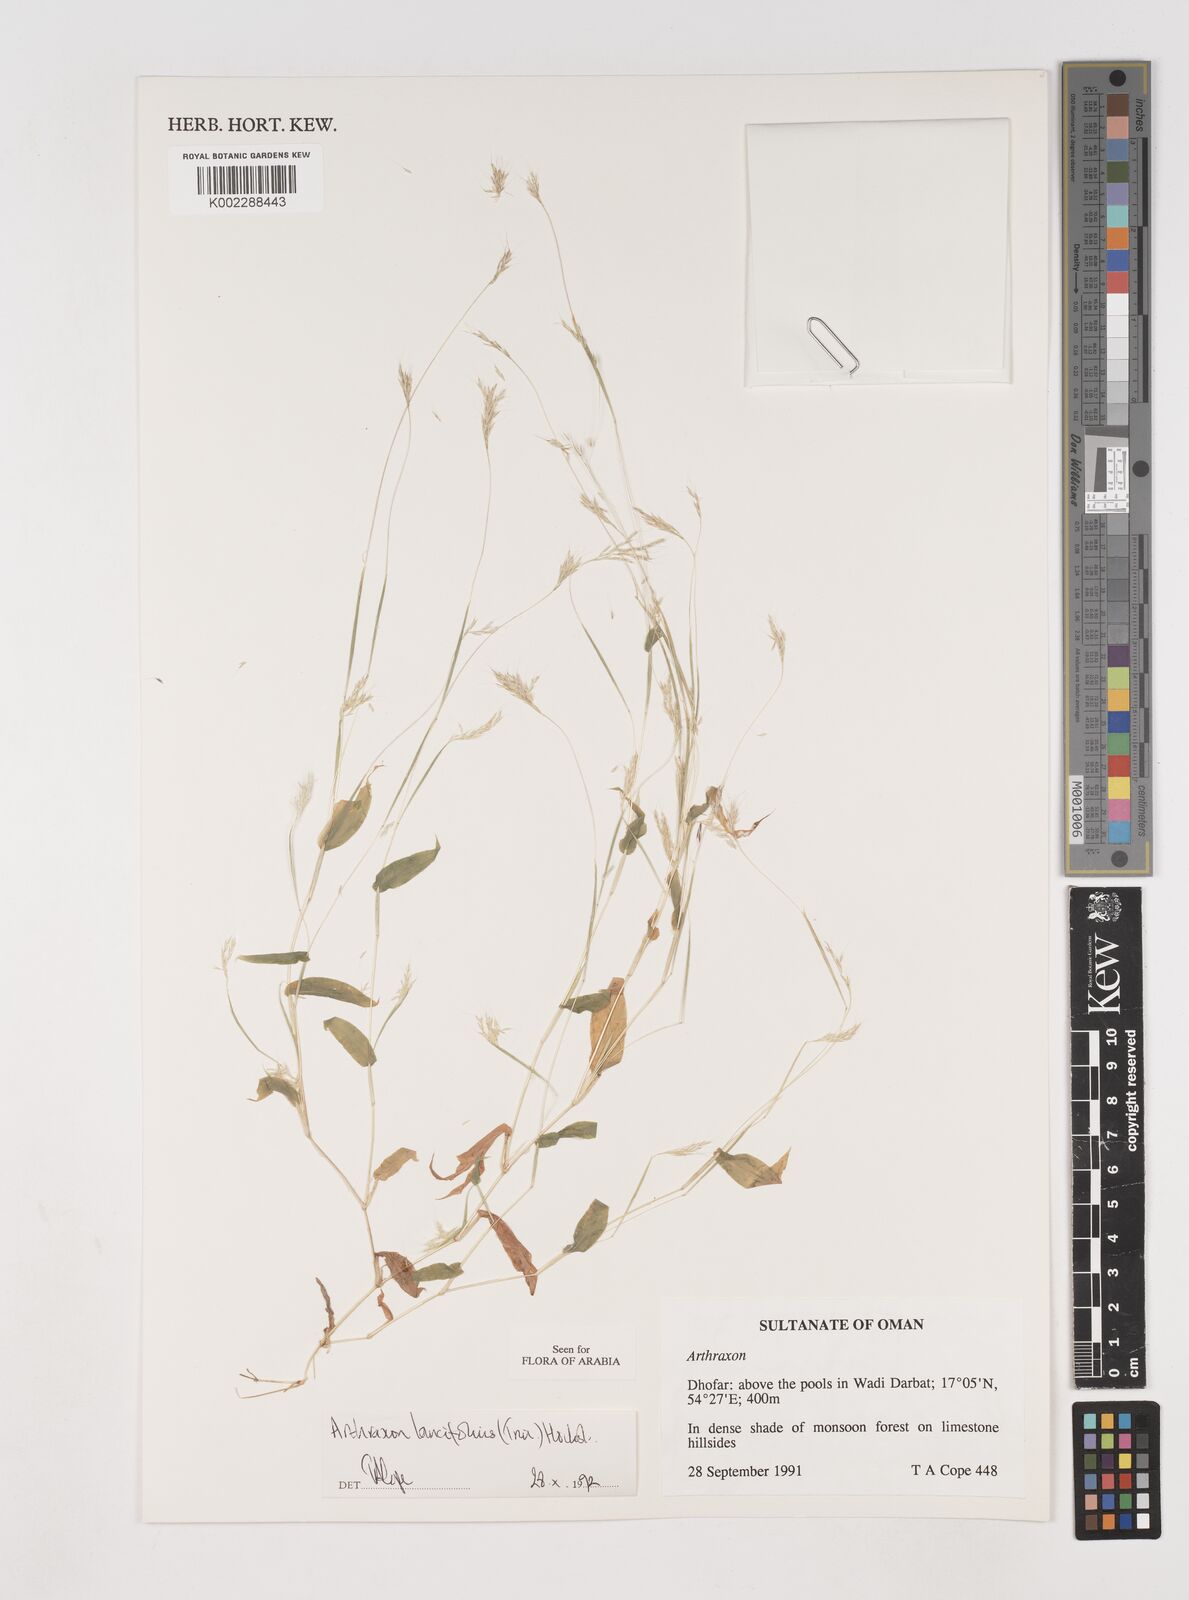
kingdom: Plantae
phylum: Tracheophyta
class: Liliopsida
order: Poales
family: Poaceae
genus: Arthraxon
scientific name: Arthraxon lancifolius
